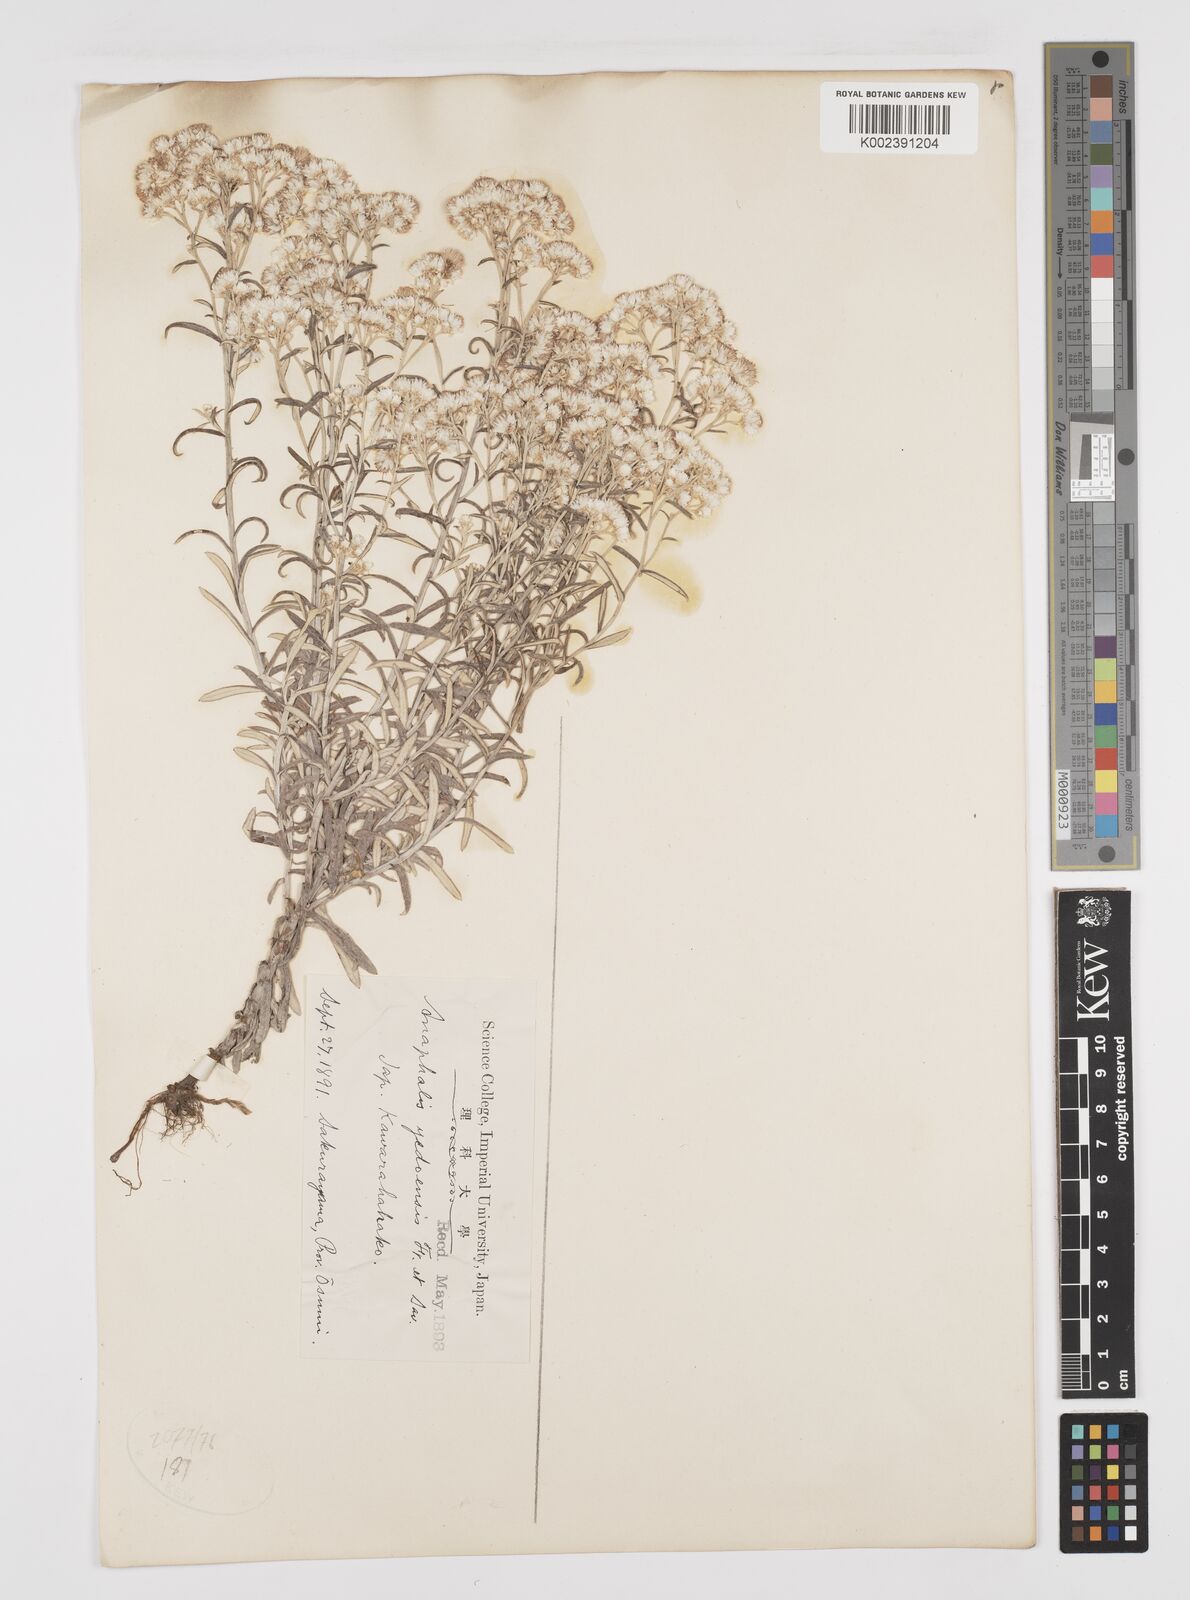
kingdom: Plantae
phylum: Tracheophyta
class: Magnoliopsida
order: Asterales
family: Asteraceae
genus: Anaphalis
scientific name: Anaphalis margaritacea
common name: Pearly everlasting
